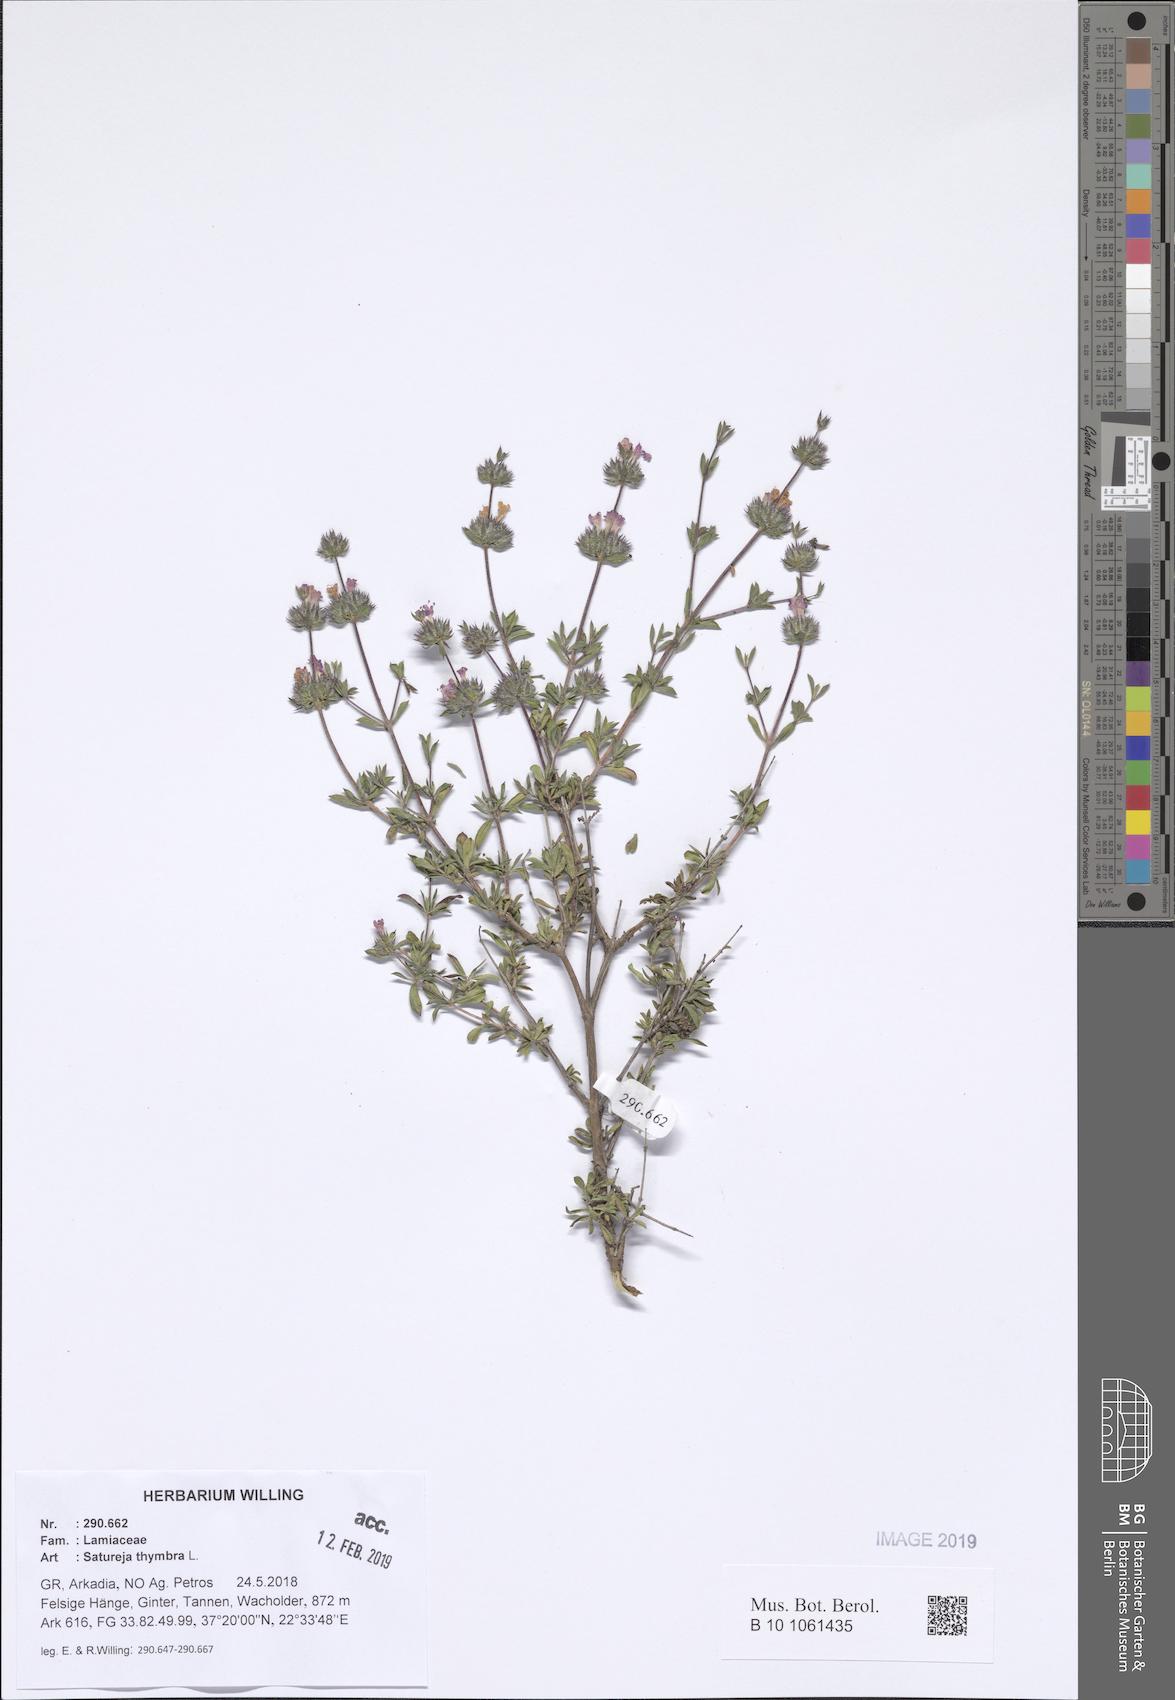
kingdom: Plantae
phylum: Tracheophyta
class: Magnoliopsida
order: Lamiales
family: Lamiaceae
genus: Satureja
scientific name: Satureja thymbra
